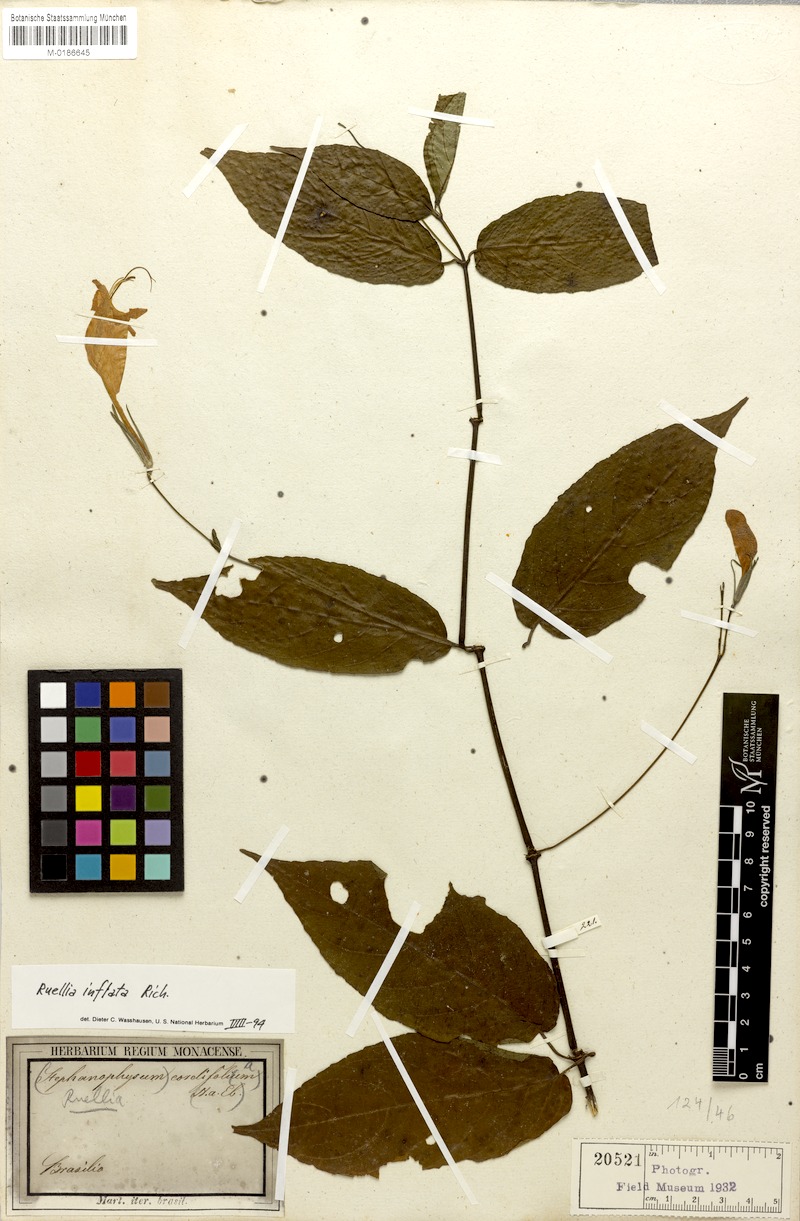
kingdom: Plantae
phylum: Tracheophyta
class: Magnoliopsida
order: Lamiales
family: Acanthaceae
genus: Ruellia
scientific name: Ruellia inflata
